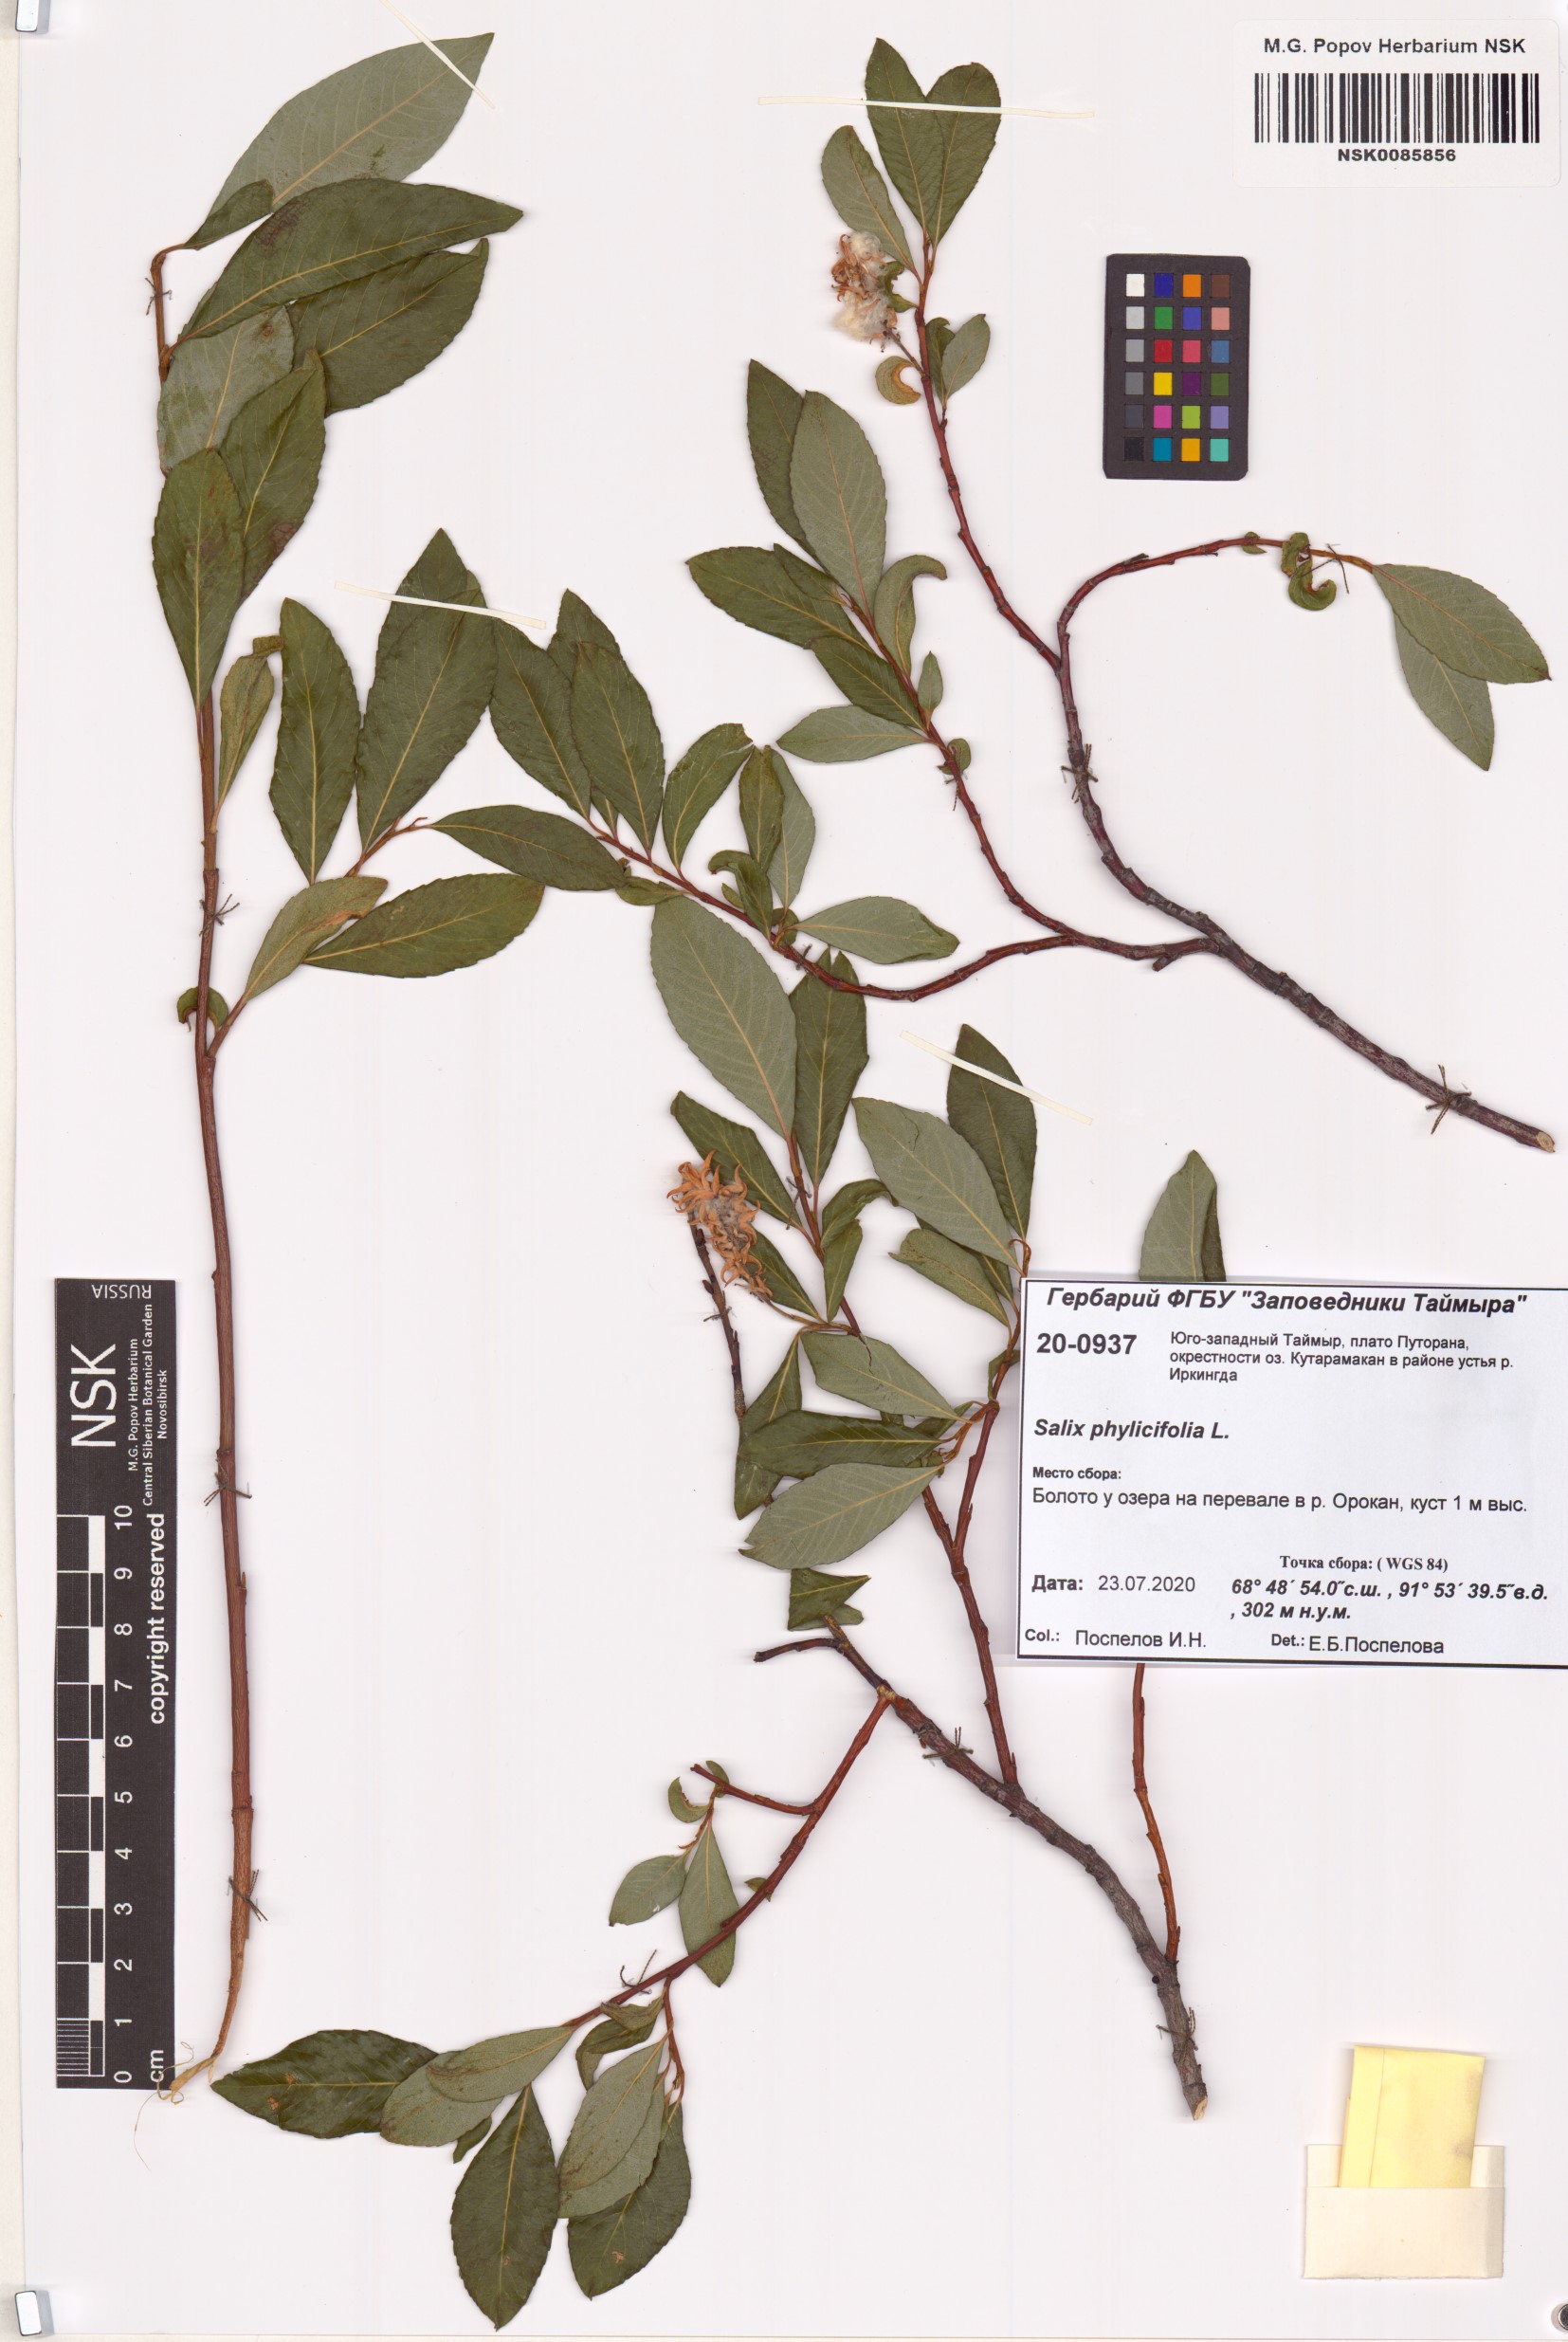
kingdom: Plantae
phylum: Tracheophyta
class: Magnoliopsida
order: Malpighiales
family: Salicaceae
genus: Salix
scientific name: Salix phylicifolia
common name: Tea-leaved willow
